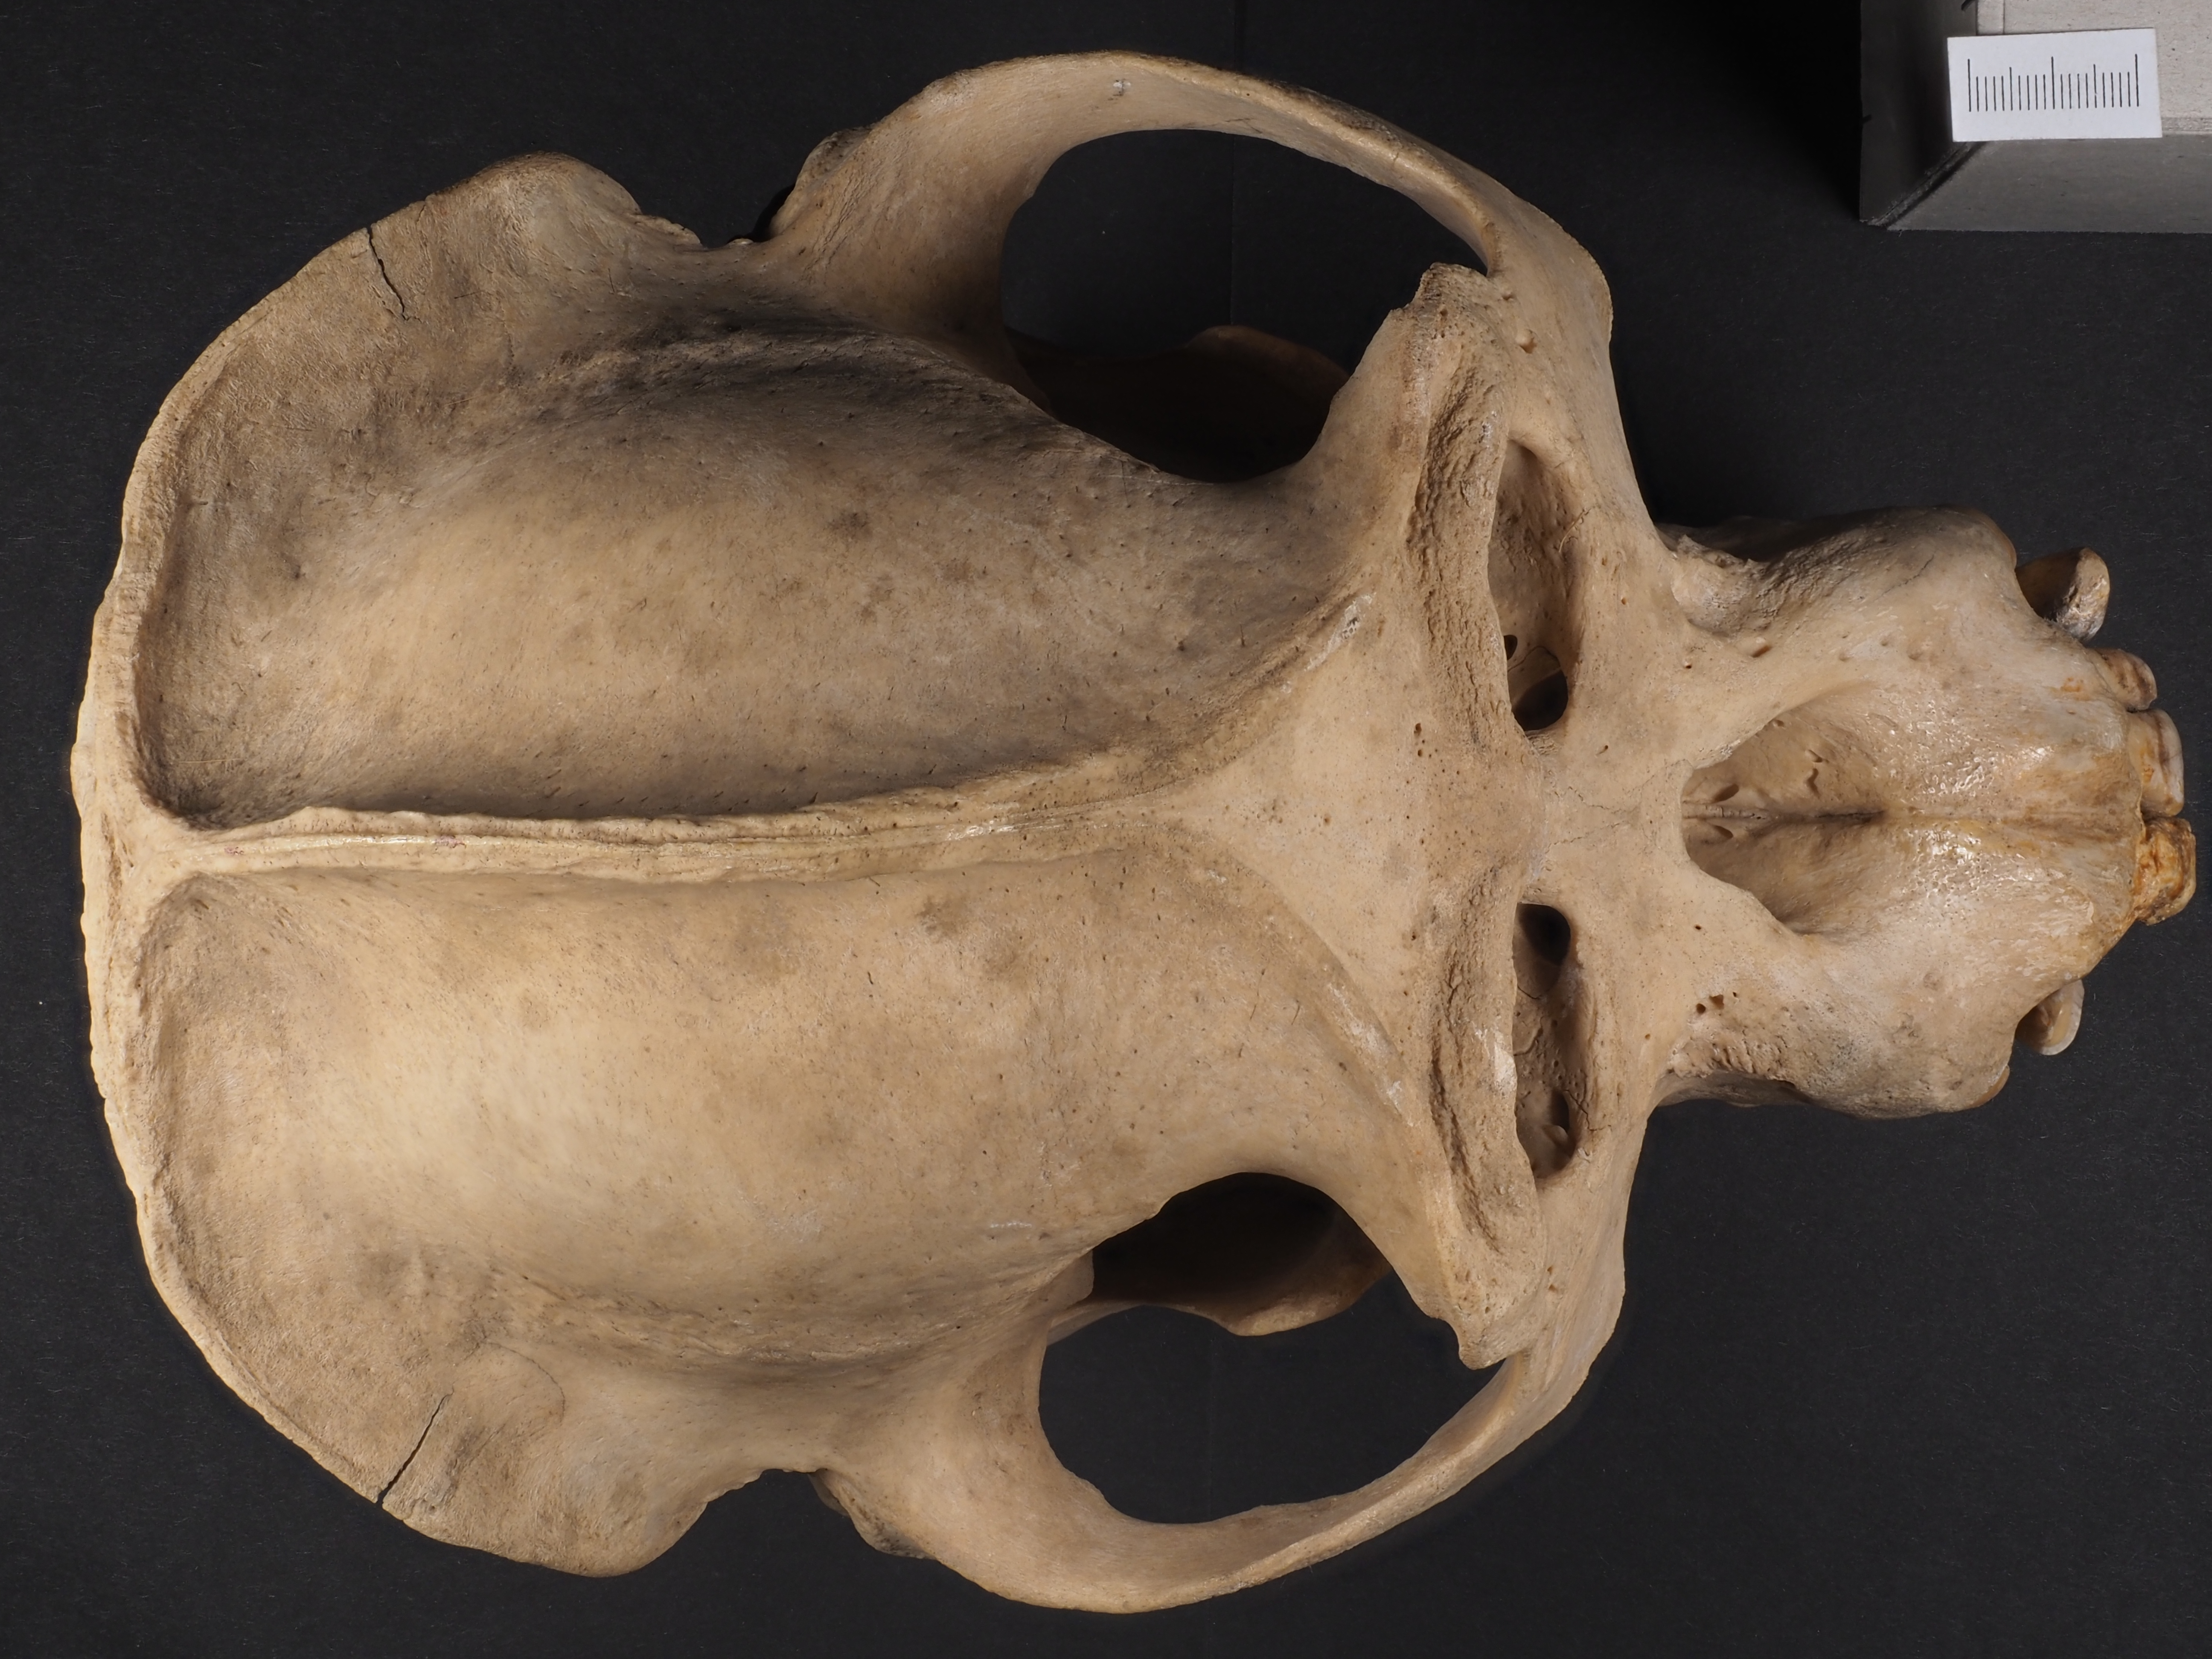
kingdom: Animalia
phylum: Chordata
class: Mammalia
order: Primates
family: Hominidae
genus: Gorilla
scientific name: Gorilla gorilla
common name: Western gorilla
